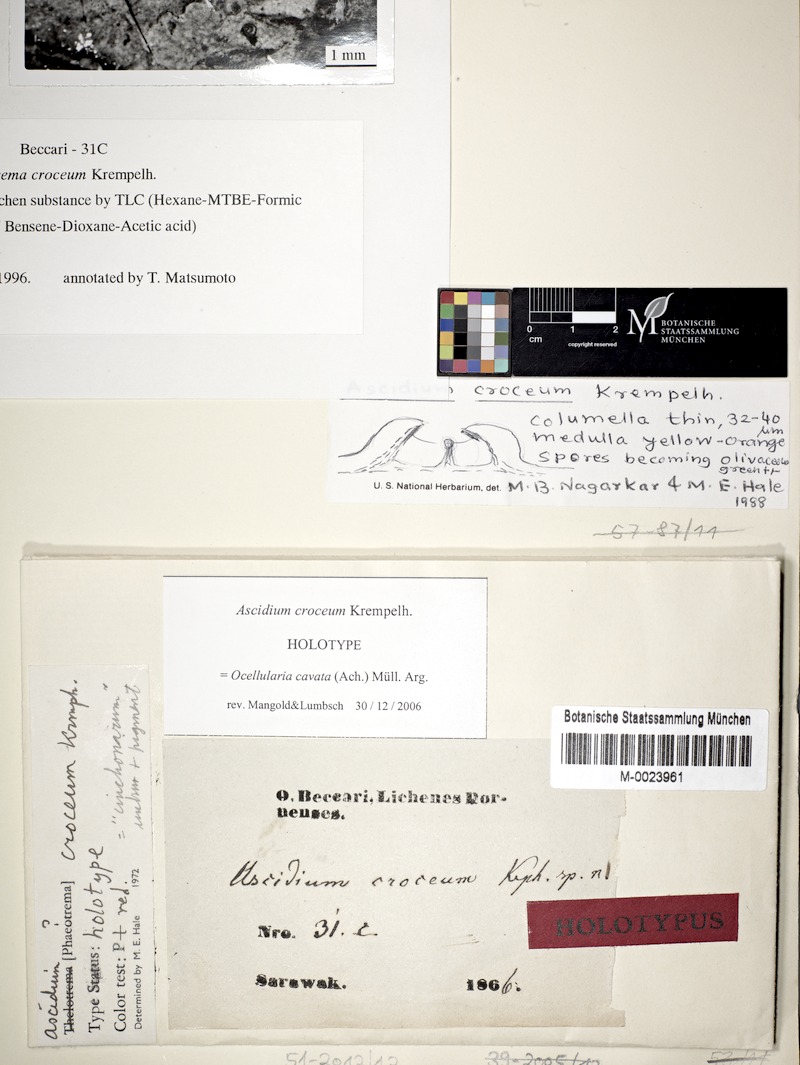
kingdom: Fungi
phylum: Ascomycota
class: Lecanoromycetes
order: Ostropales
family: Graphidaceae
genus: Ocellularia
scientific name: Ocellularia crocea
